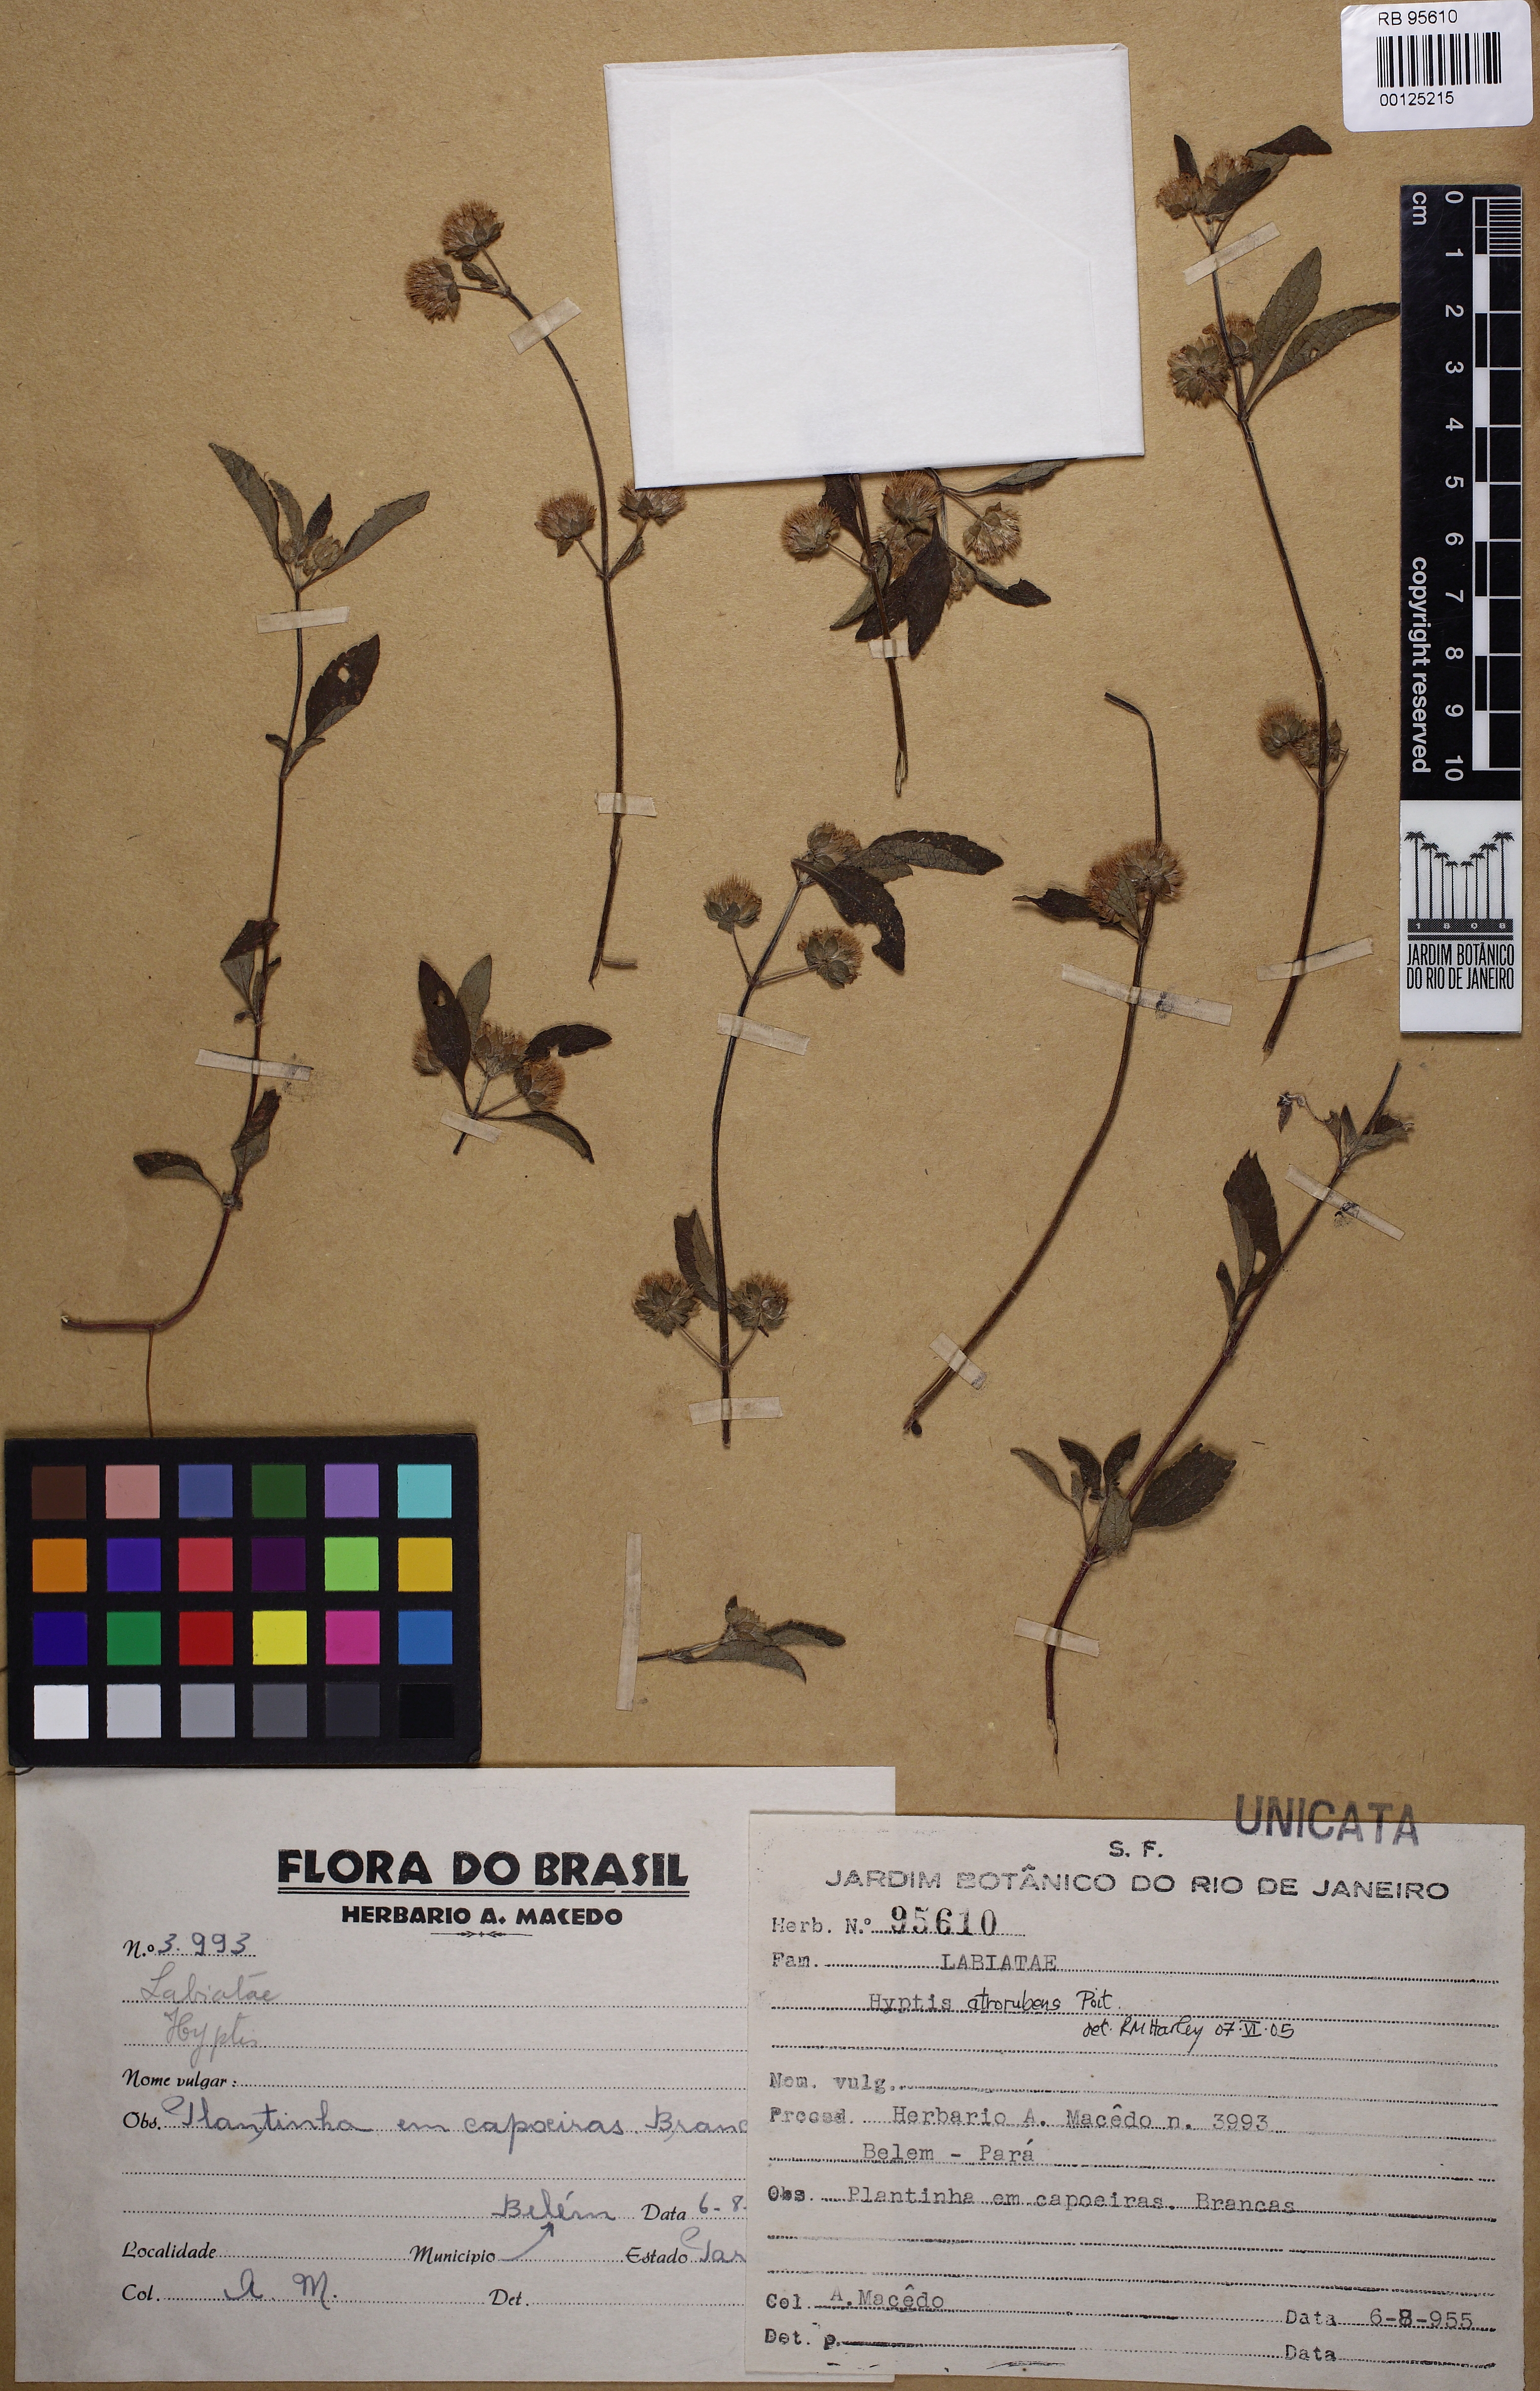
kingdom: Plantae
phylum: Tracheophyta
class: Magnoliopsida
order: Lamiales
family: Lamiaceae
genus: Hyptis
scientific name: Hyptis atrorubens
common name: Lanmant
